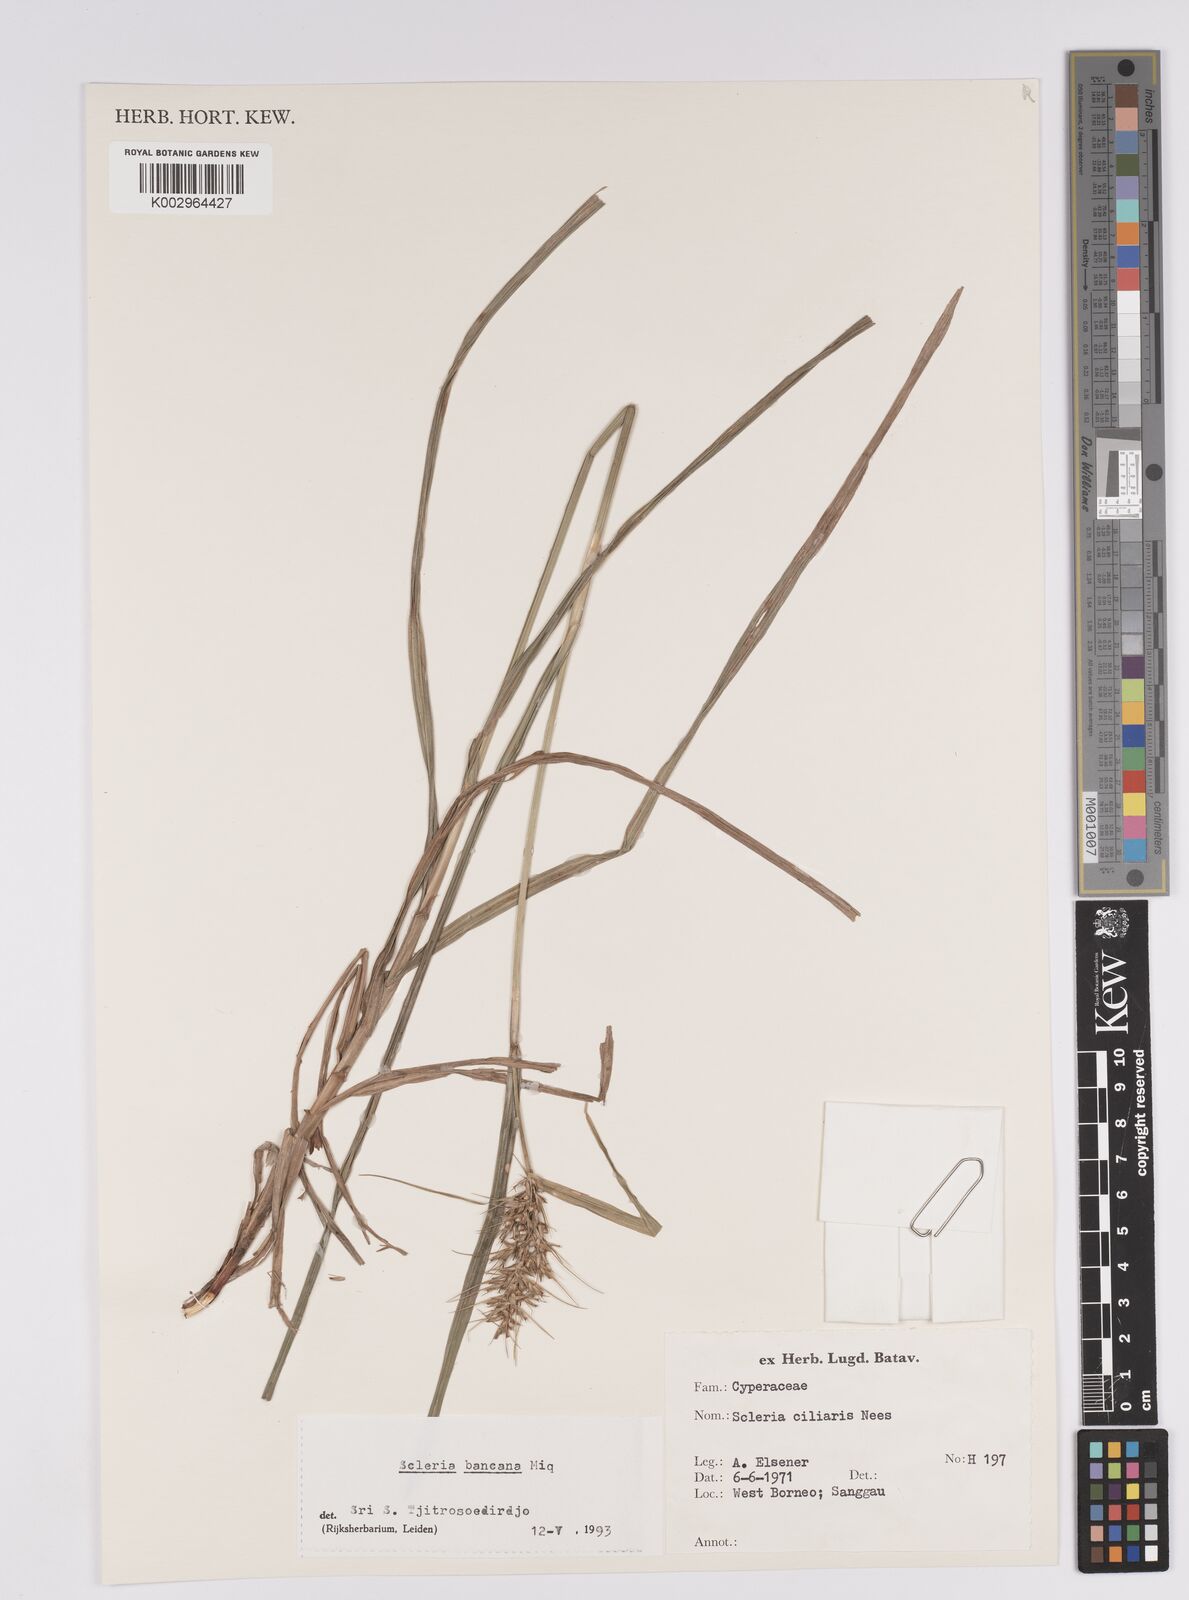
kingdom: Plantae
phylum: Tracheophyta
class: Liliopsida
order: Poales
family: Cyperaceae
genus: Scleria
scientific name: Scleria ciliaris
